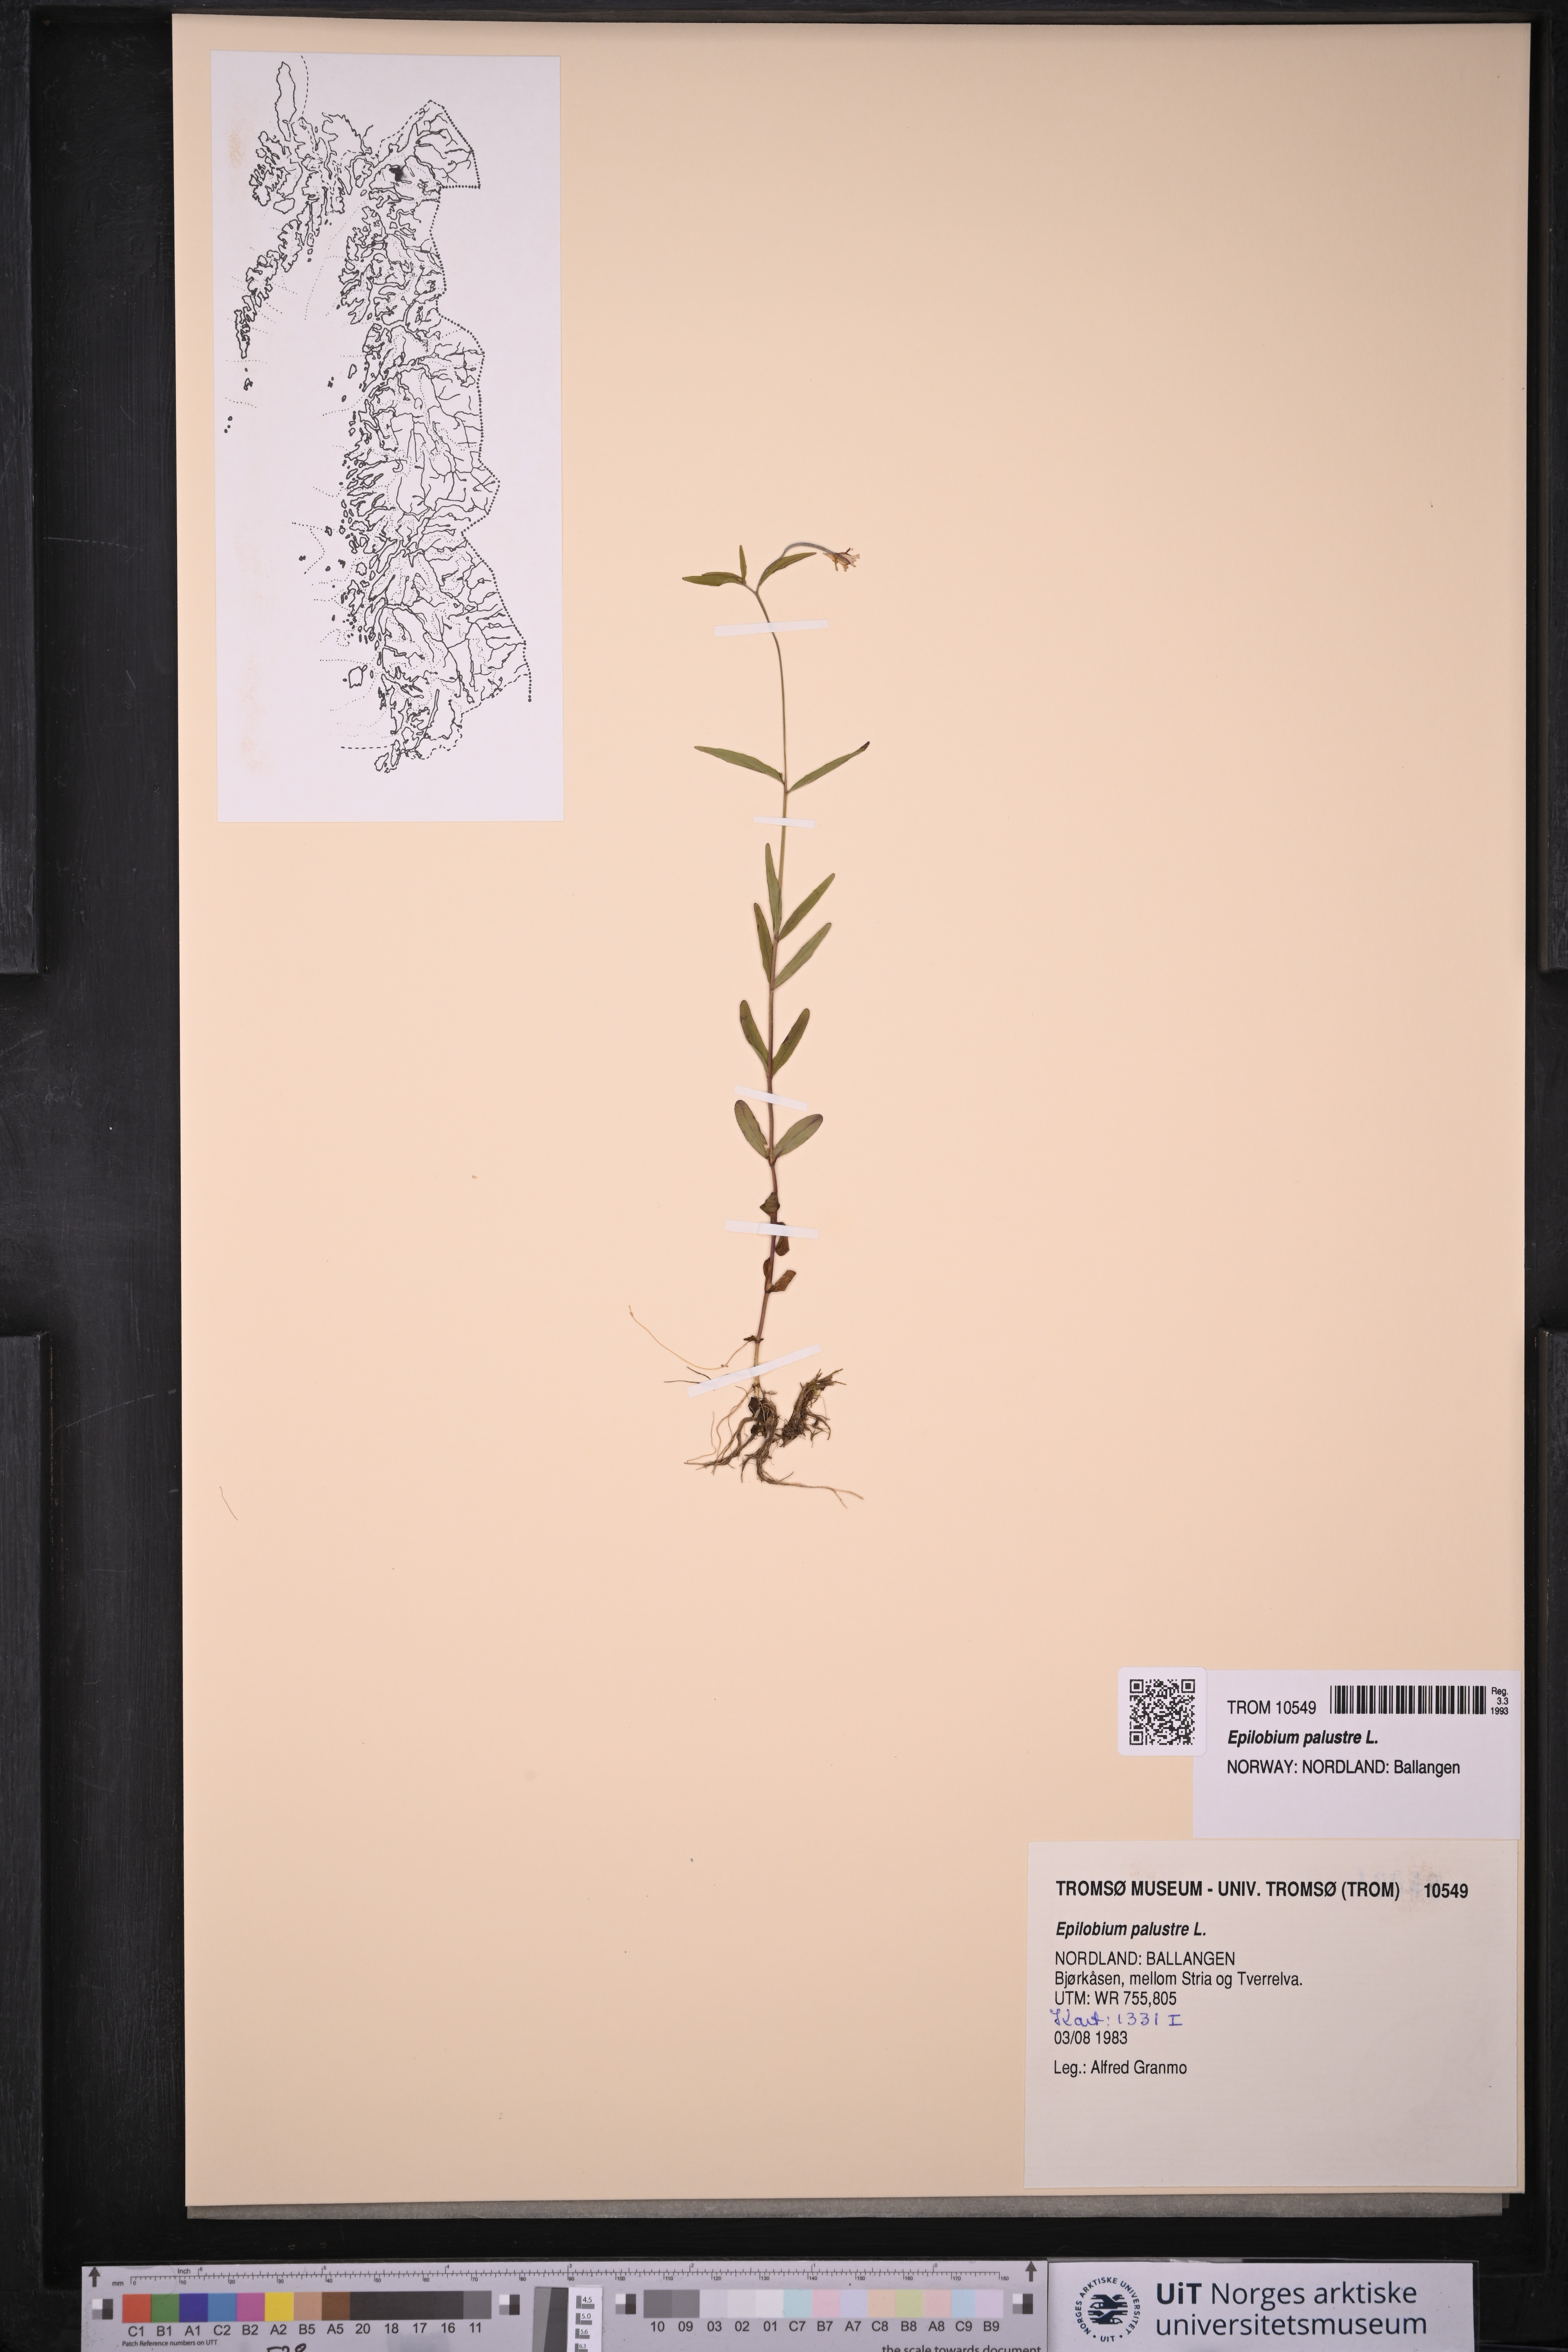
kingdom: Plantae
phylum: Tracheophyta
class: Magnoliopsida
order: Myrtales
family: Onagraceae
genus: Epilobium
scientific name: Epilobium palustre
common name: Marsh willowherb
